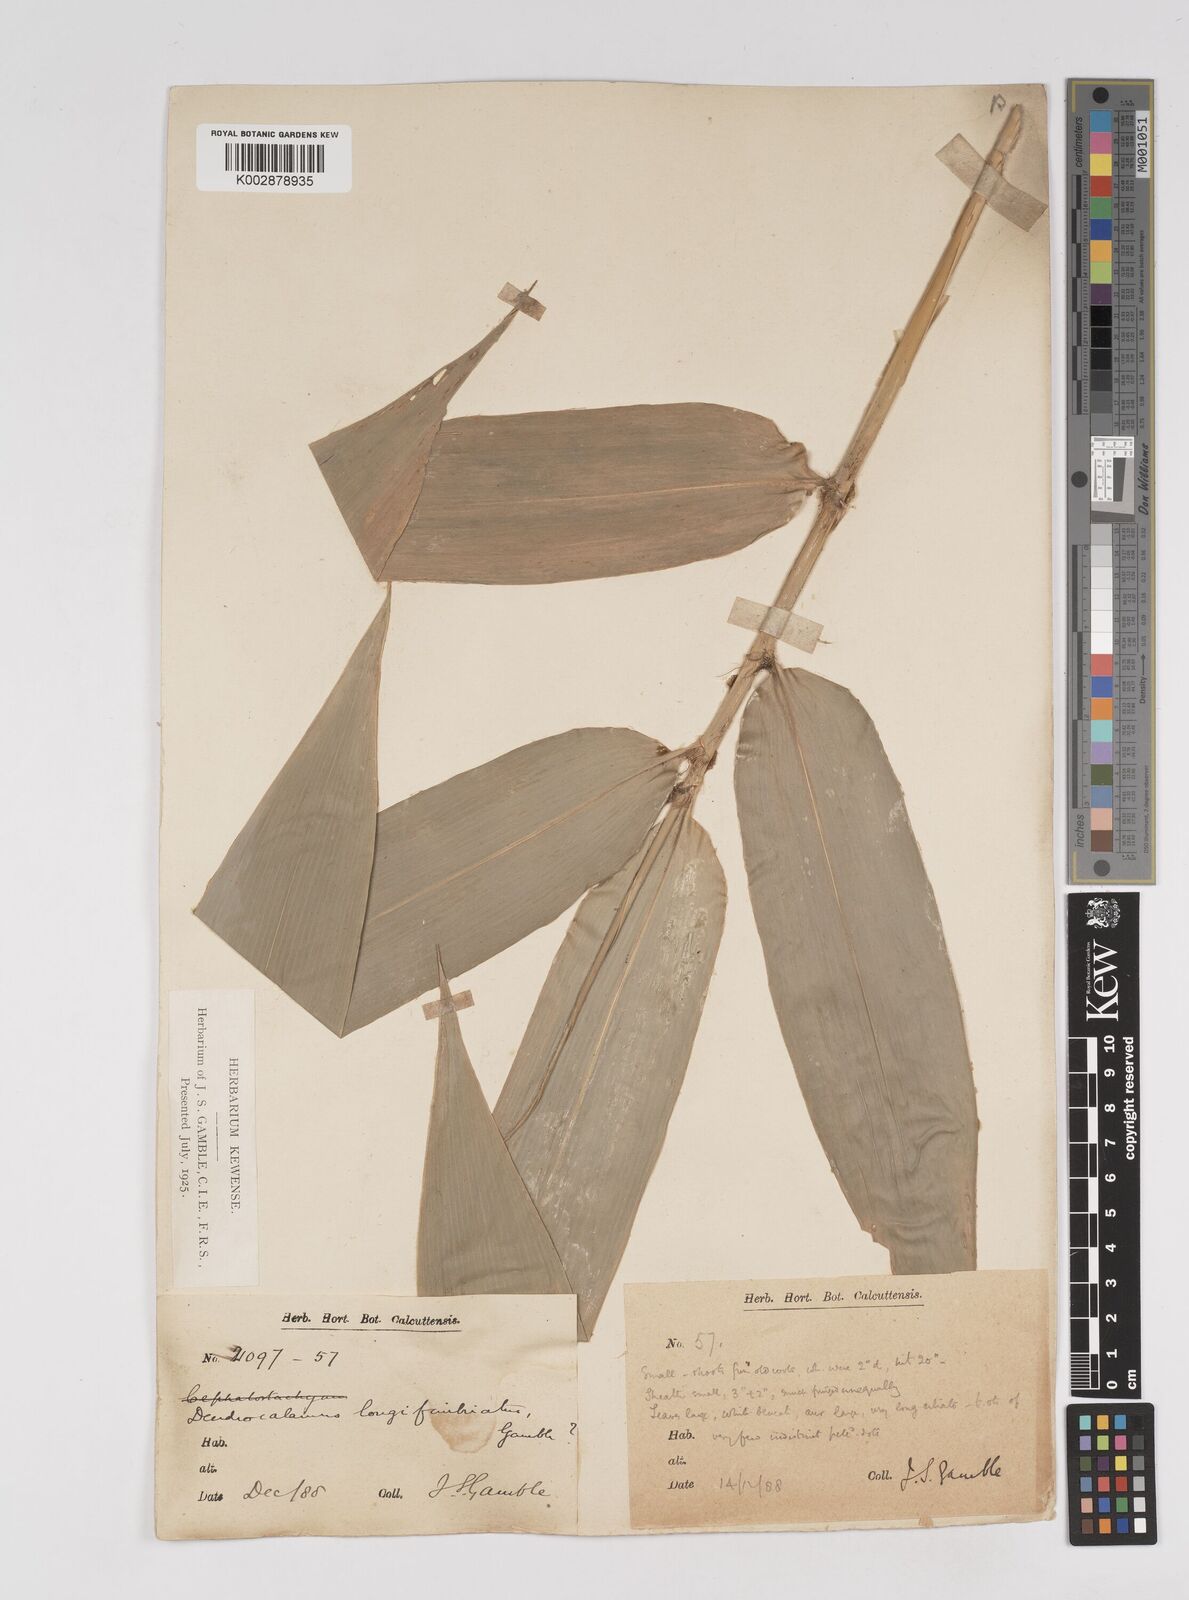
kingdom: Plantae
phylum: Tracheophyta
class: Liliopsida
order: Poales
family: Poaceae
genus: Dendrocalamus
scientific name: Dendrocalamus membranaceus
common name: White bamboo
